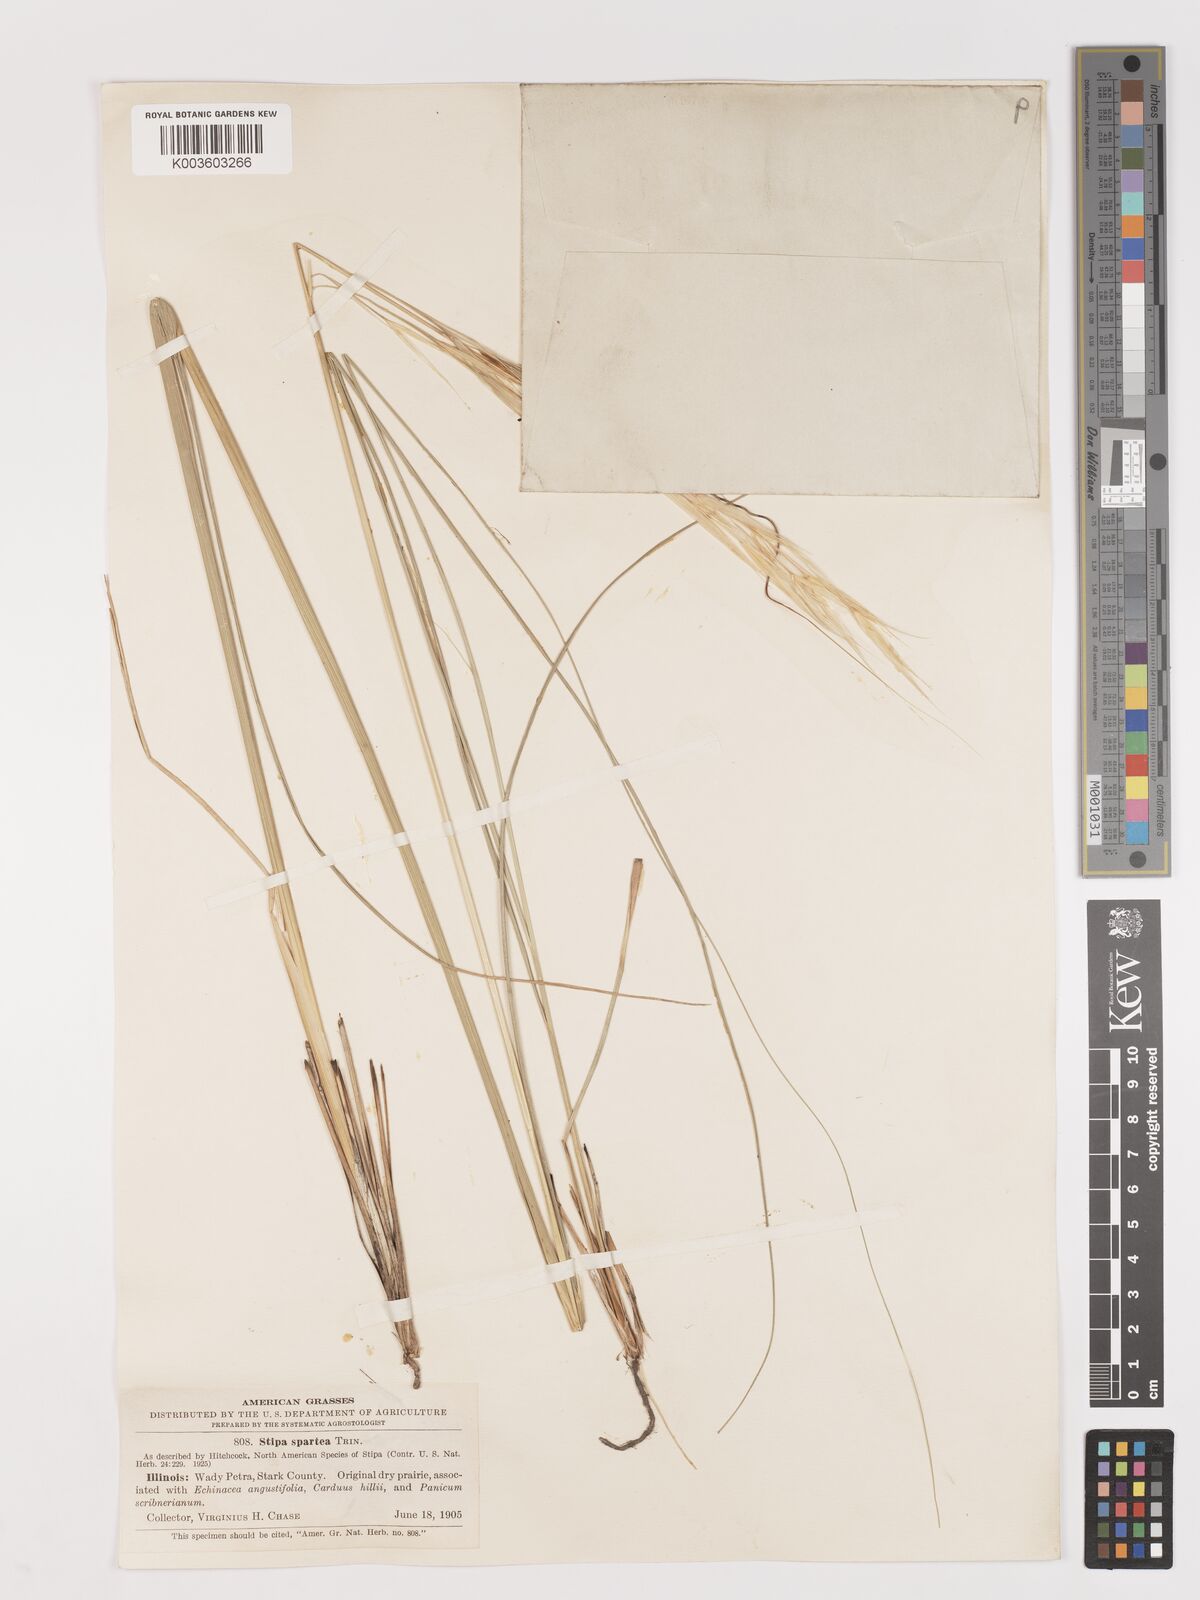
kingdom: Plantae
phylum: Tracheophyta
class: Liliopsida
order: Poales
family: Poaceae
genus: Hesperostipa
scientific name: Hesperostipa spartea
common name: Porcupine grass
